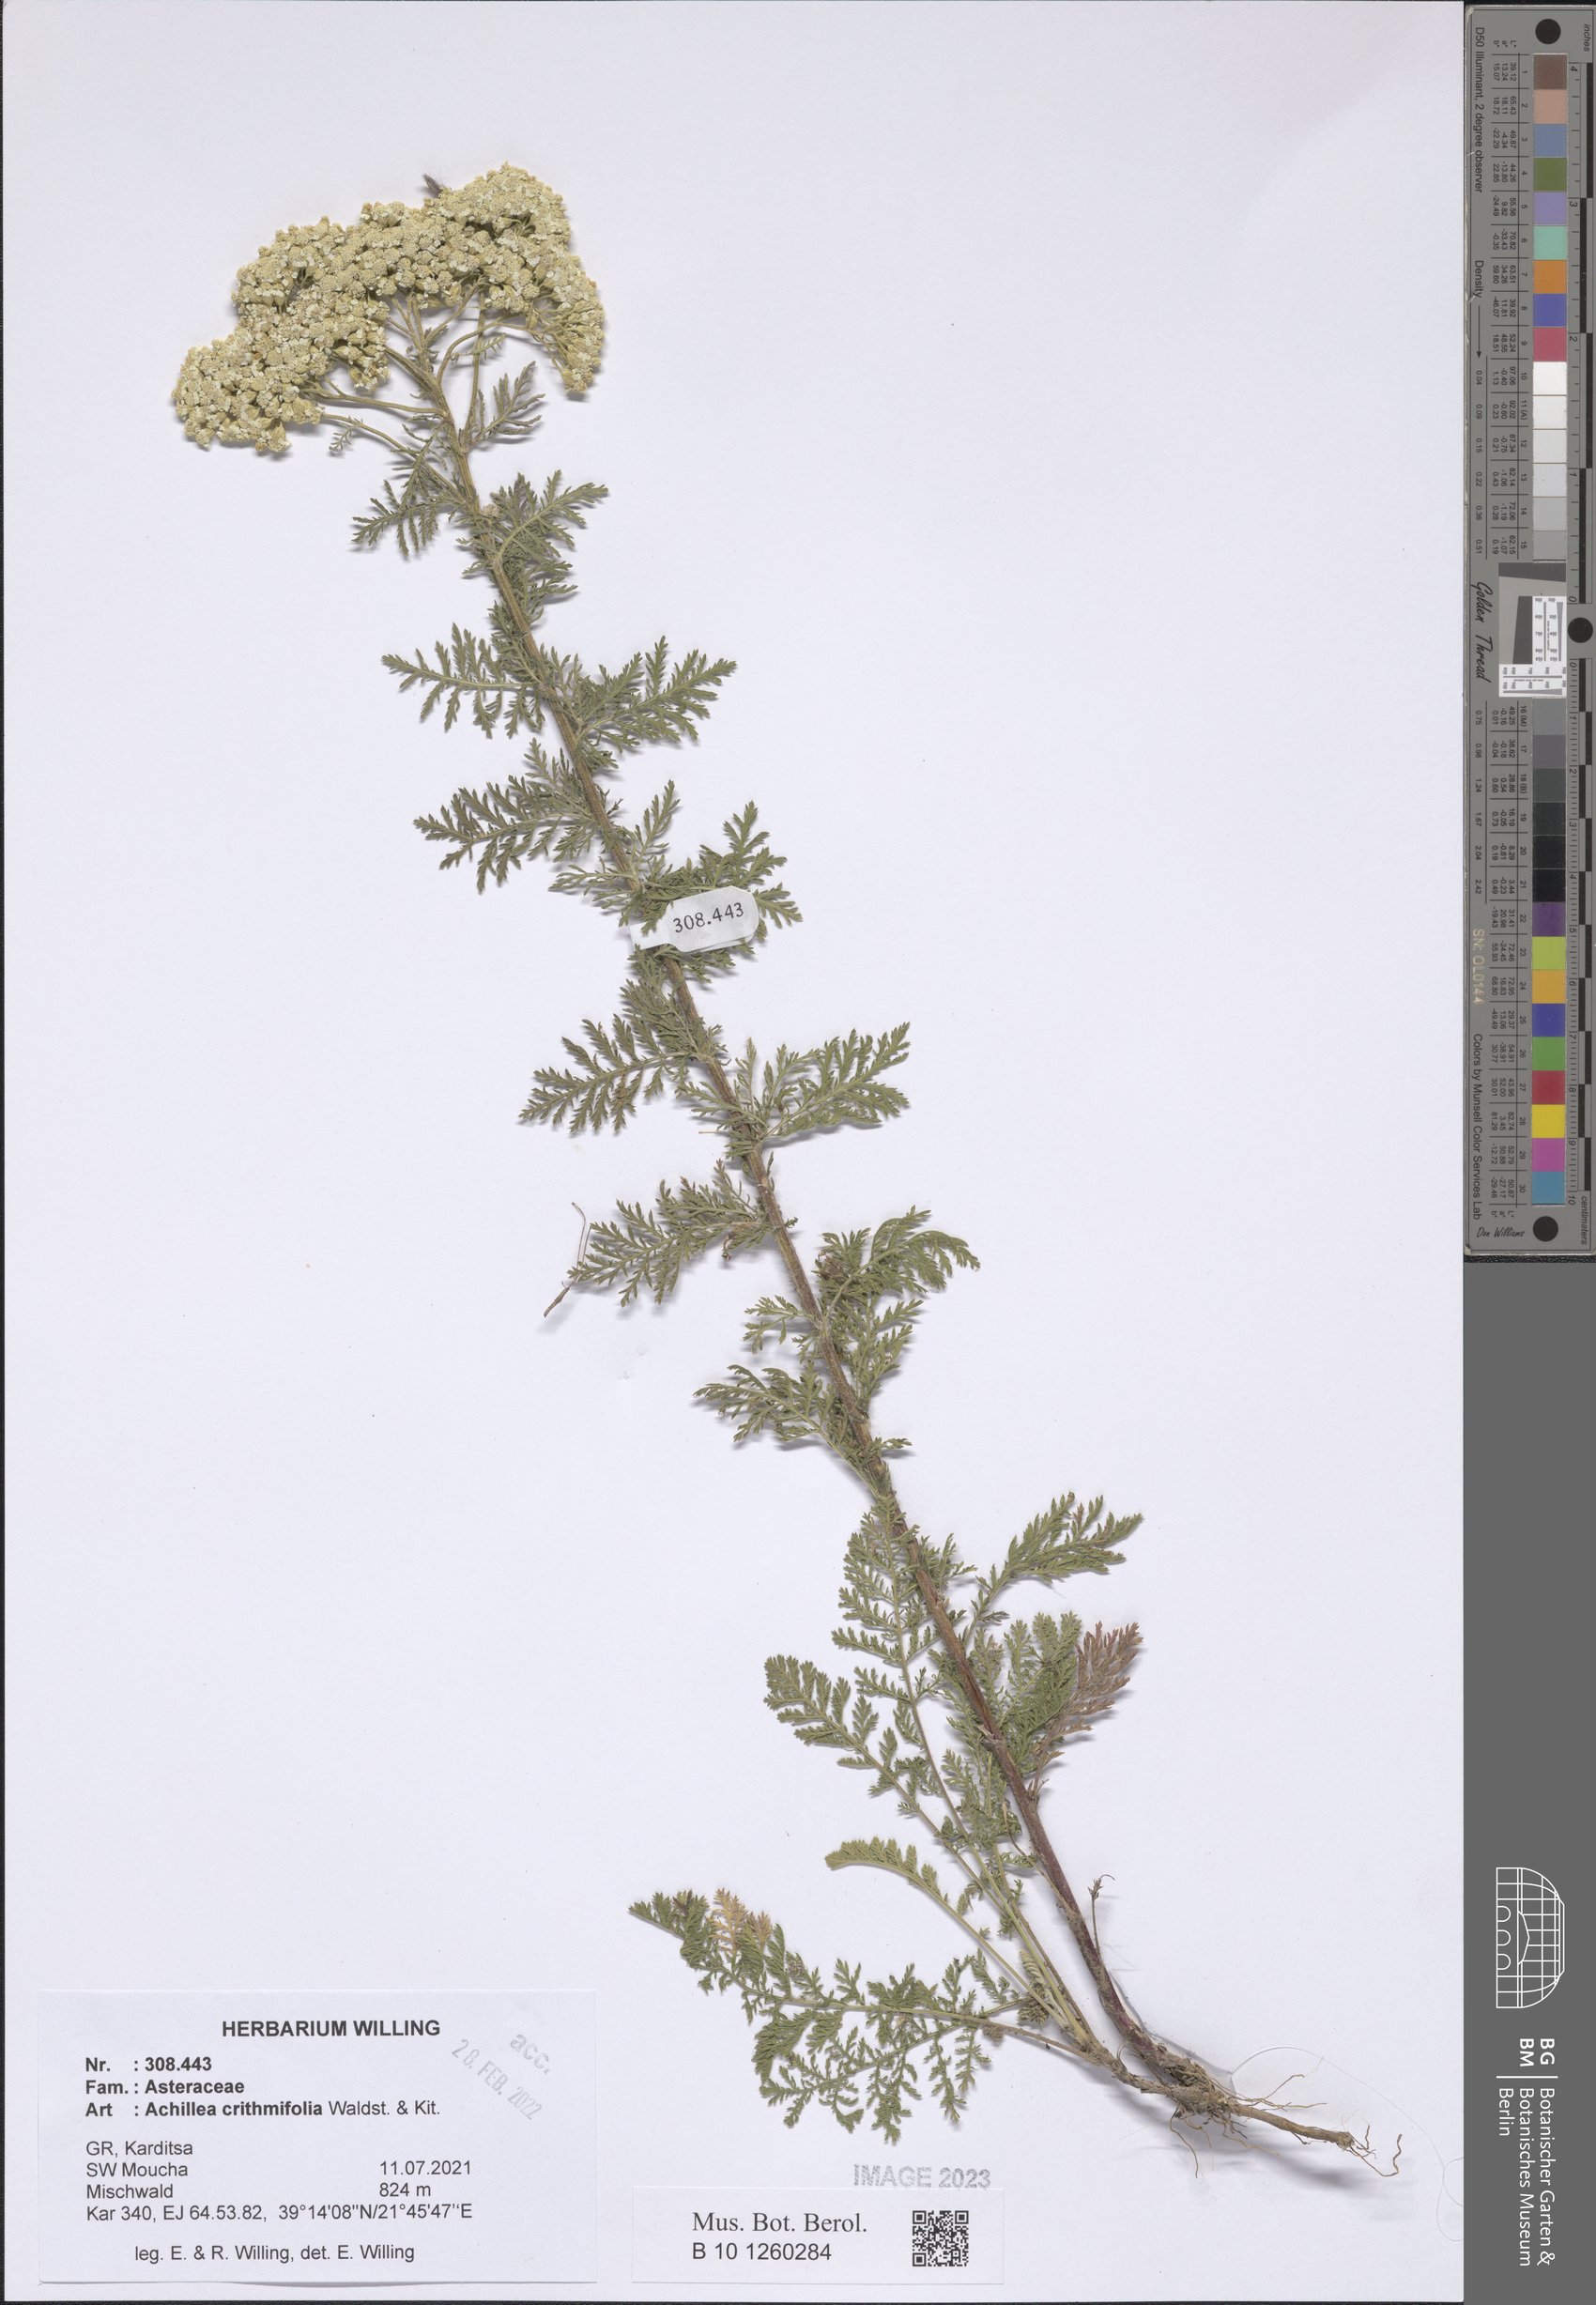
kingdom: Plantae
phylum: Tracheophyta
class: Magnoliopsida
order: Asterales
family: Asteraceae
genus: Achillea
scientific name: Achillea crithmifolia
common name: Yarrow
